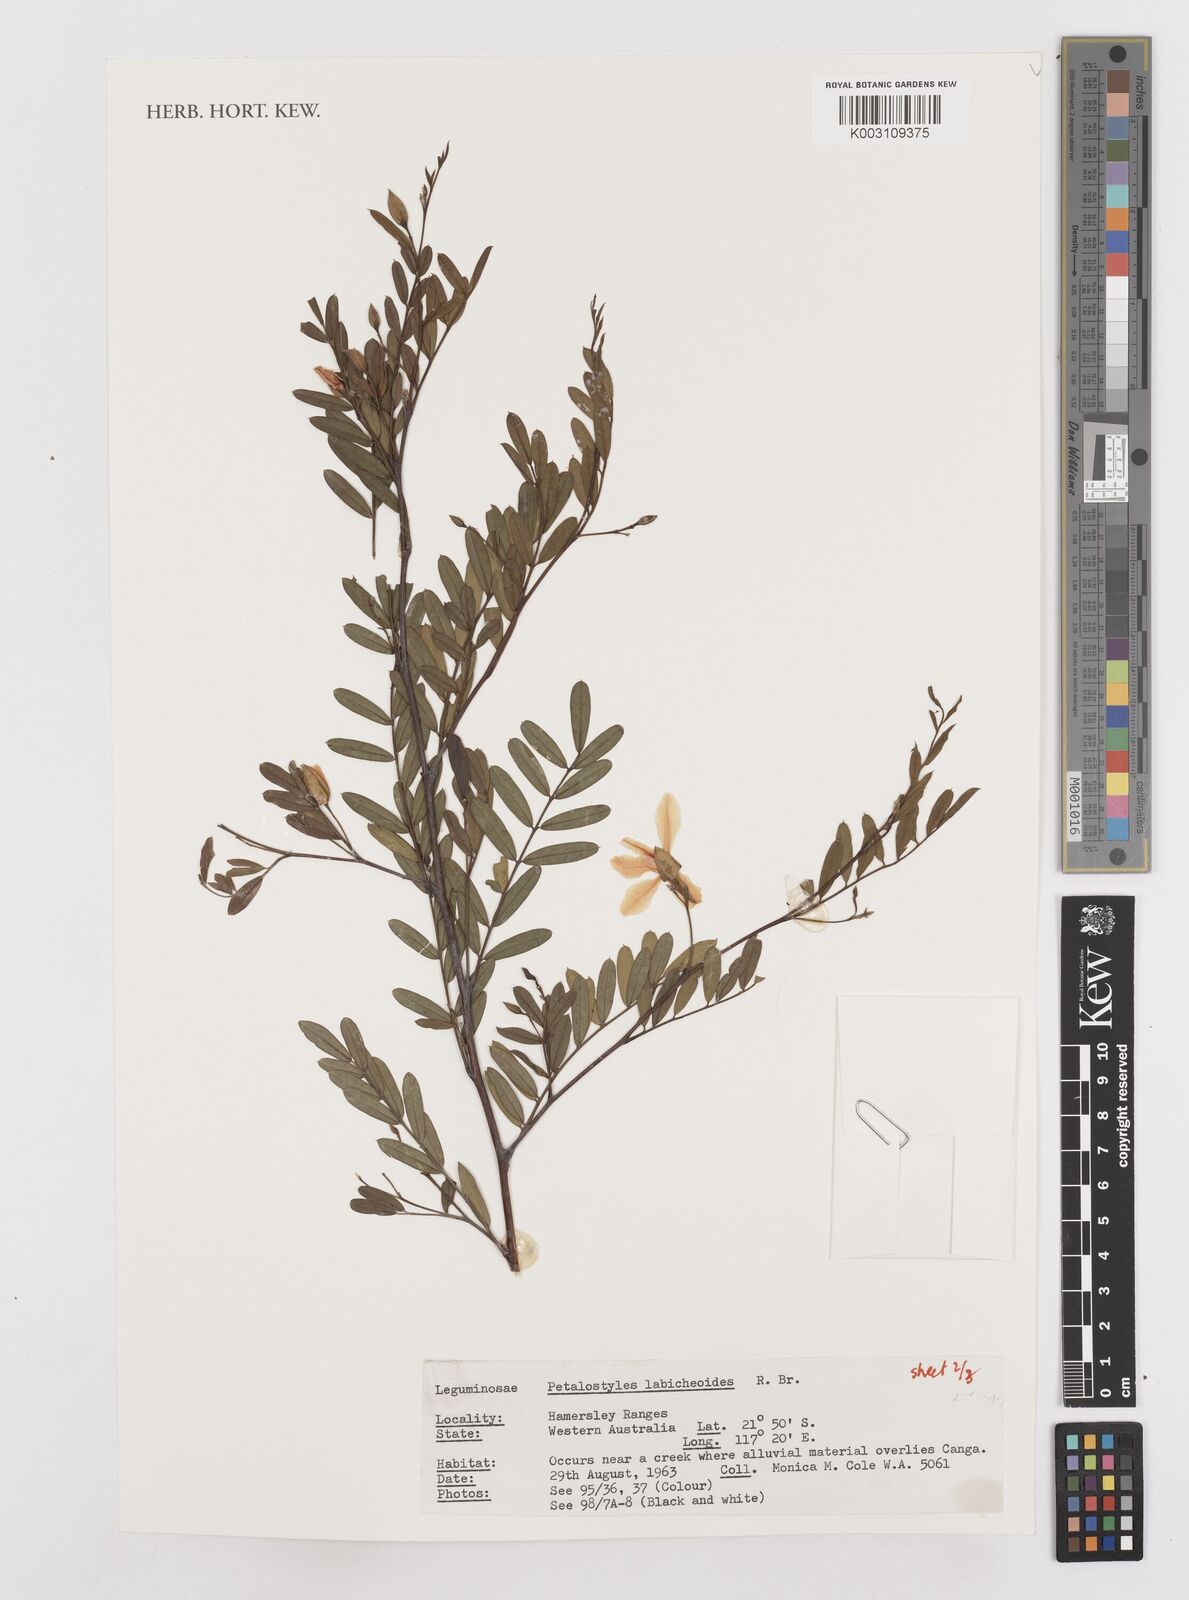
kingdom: Plantae
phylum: Tracheophyta
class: Magnoliopsida
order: Fabales
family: Fabaceae
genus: Petalostylis
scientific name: Petalostylis labicheoides
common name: Butterfly bush
